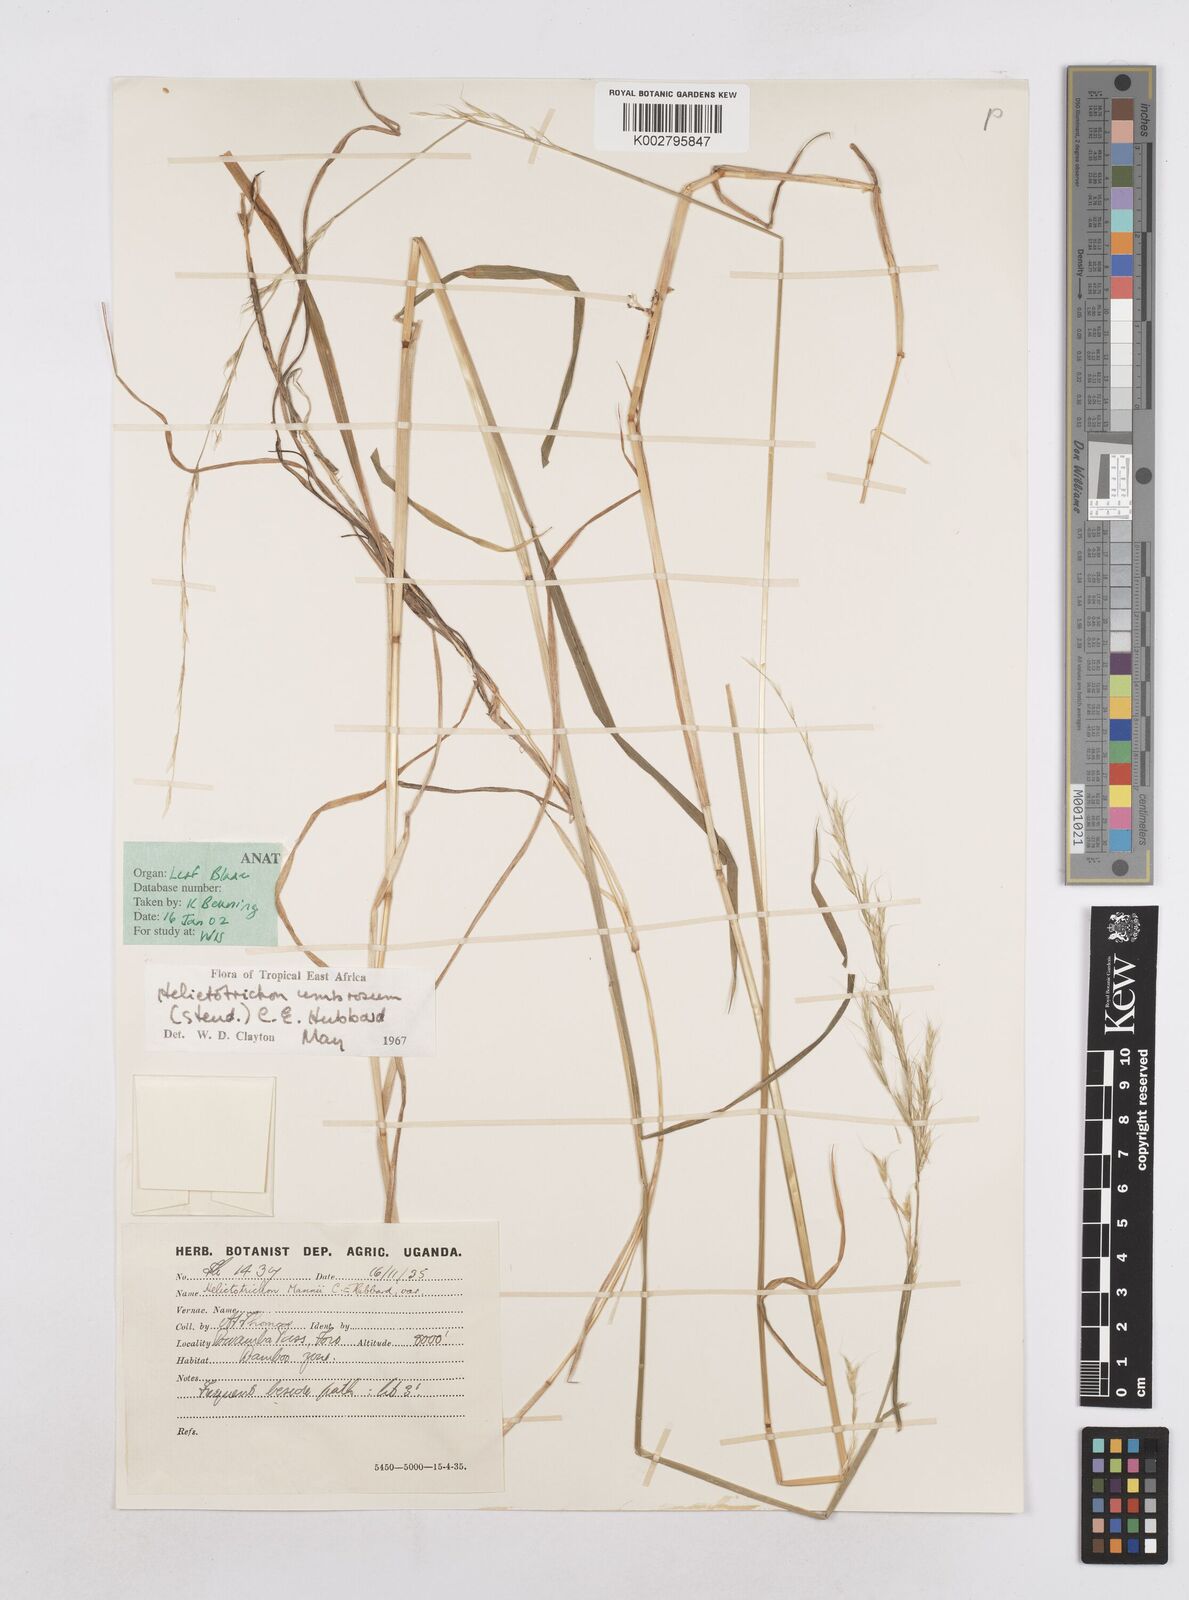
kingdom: Plantae
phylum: Tracheophyta
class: Liliopsida
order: Poales
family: Poaceae
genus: Trisetopsis
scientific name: Trisetopsis umbrosa
